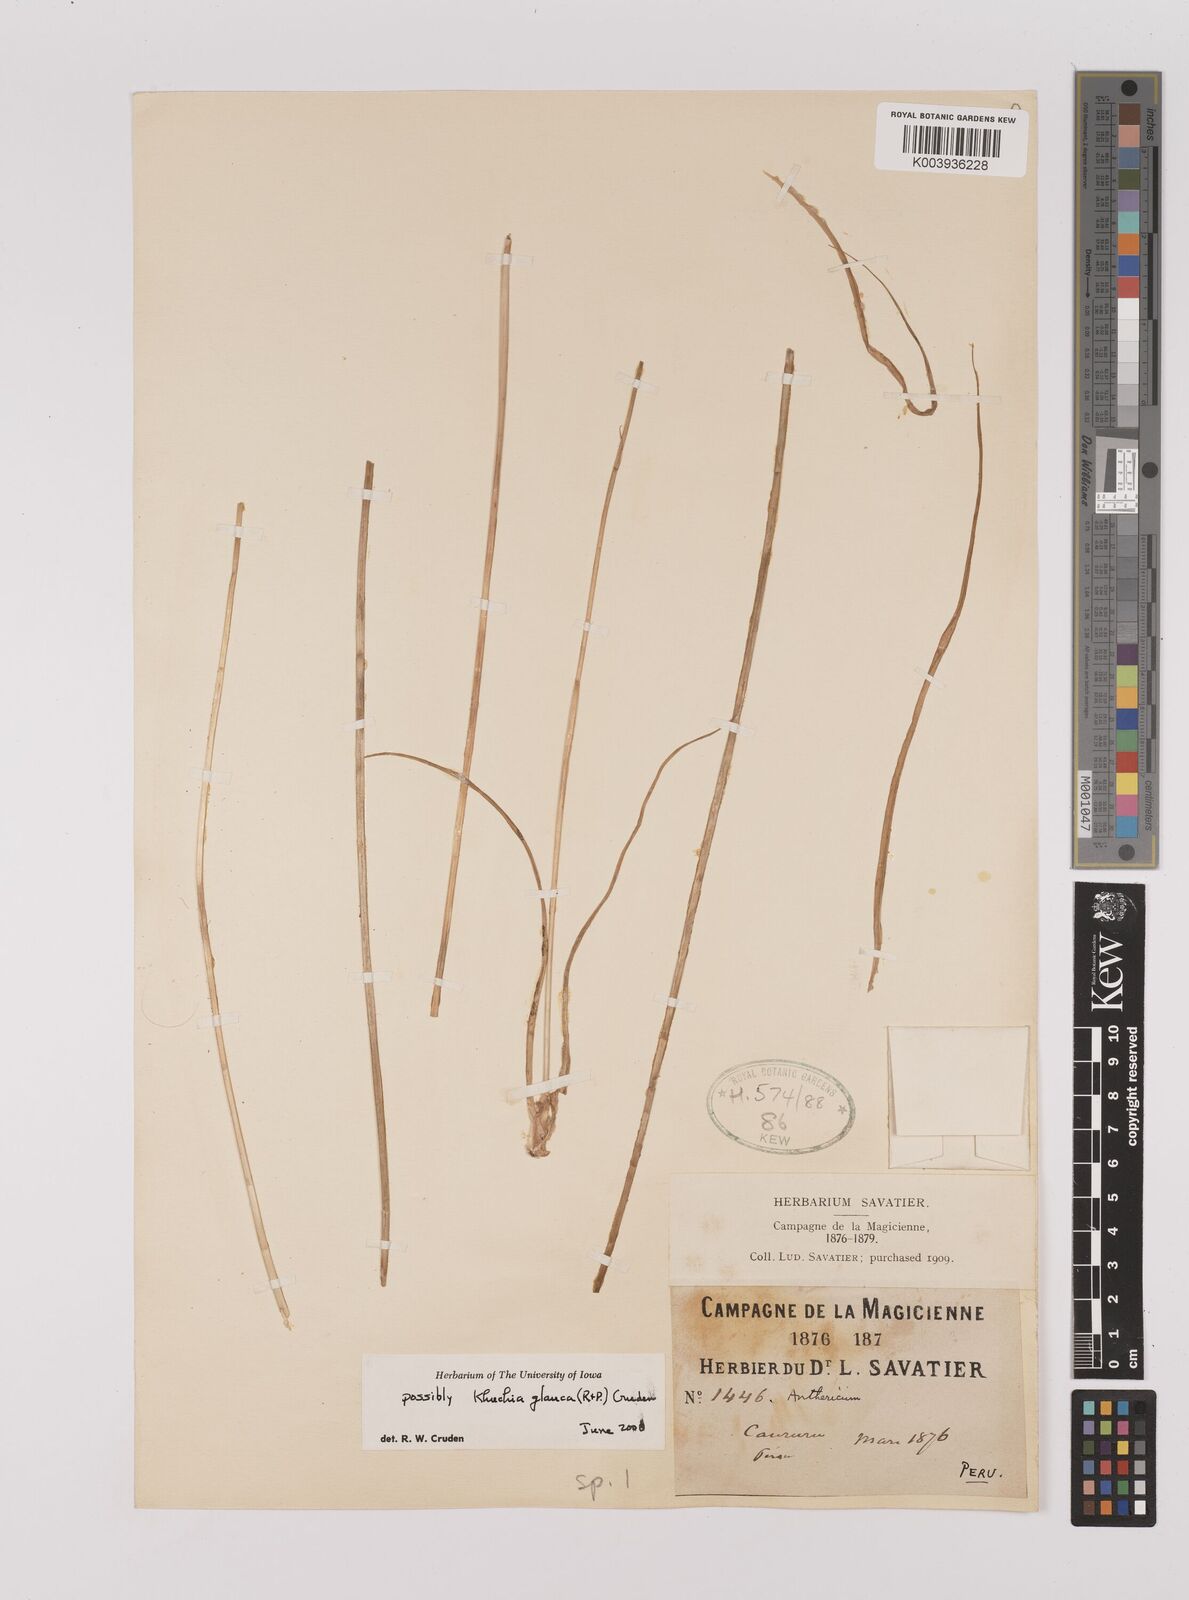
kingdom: Plantae
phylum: Tracheophyta
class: Liliopsida
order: Asparagales
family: Asparagaceae
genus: Echeandia
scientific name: Echeandia
